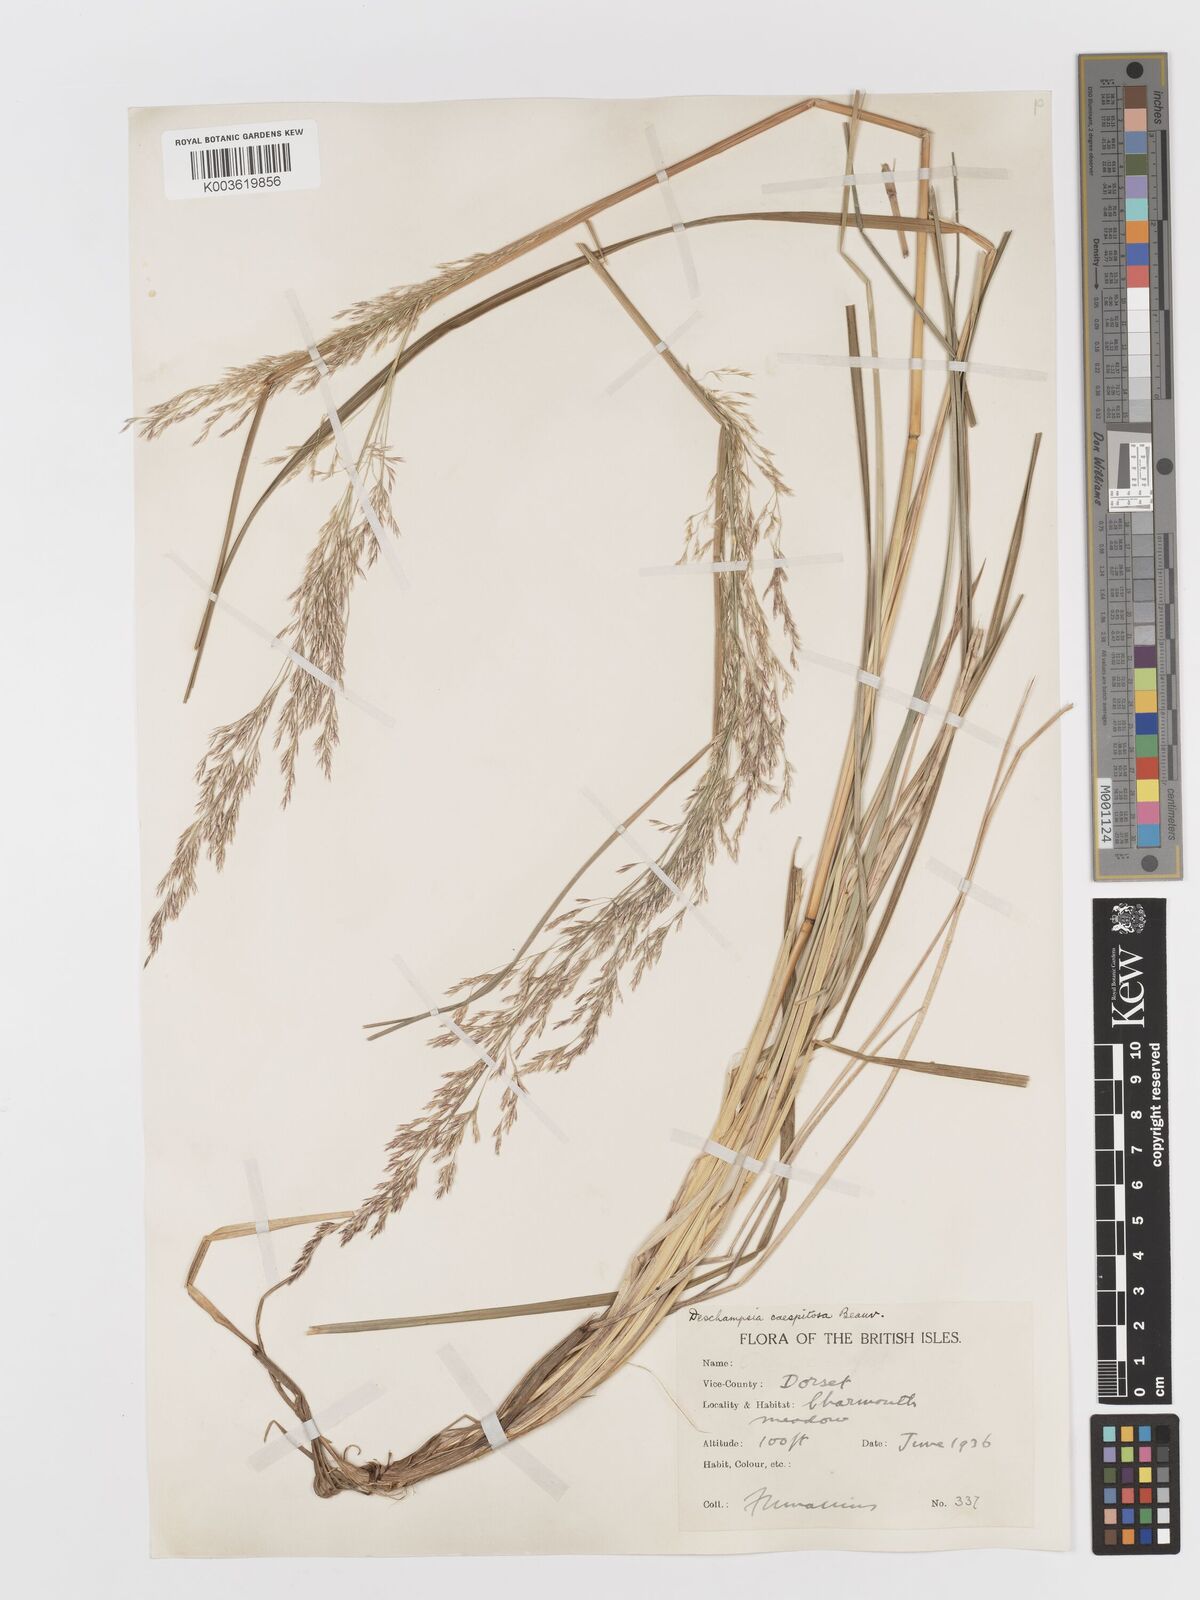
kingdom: Plantae
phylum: Tracheophyta
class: Liliopsida
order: Poales
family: Poaceae
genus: Deschampsia
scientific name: Deschampsia cespitosa
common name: Tufted hair-grass
